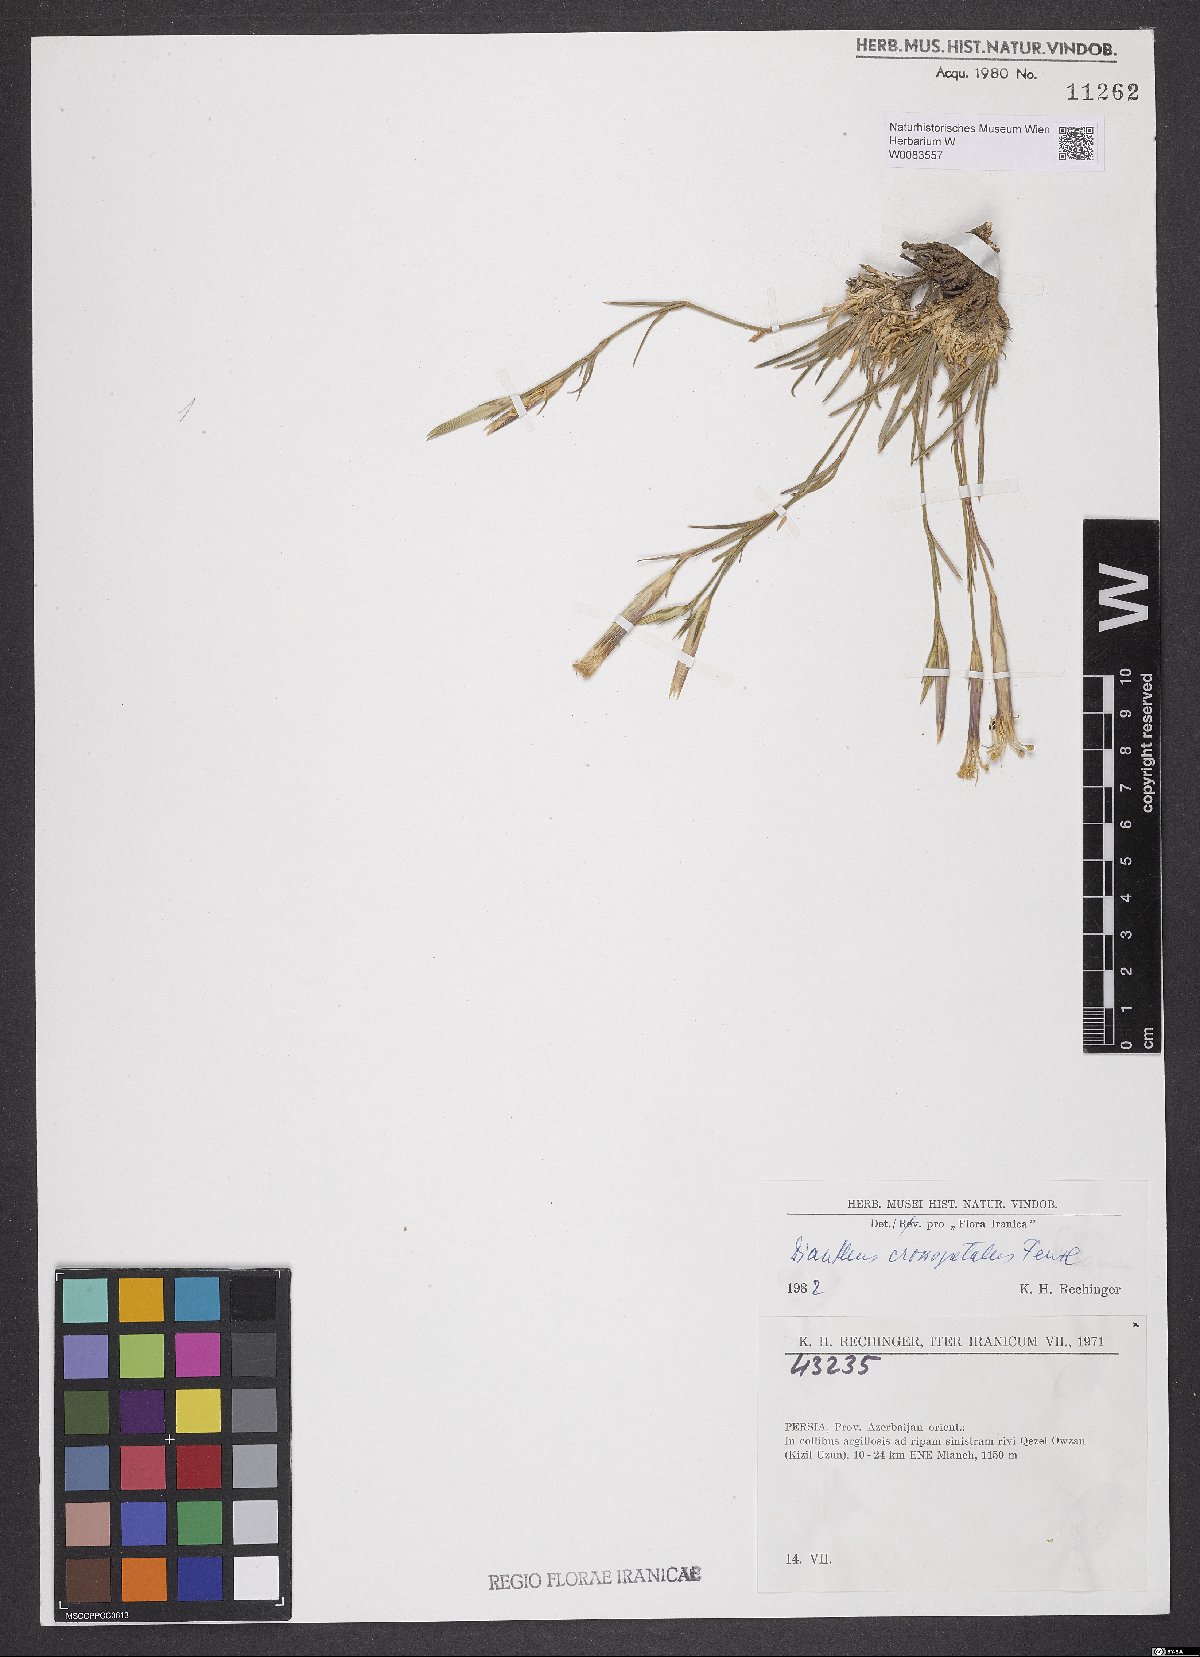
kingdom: Plantae
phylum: Tracheophyta
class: Magnoliopsida
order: Caryophyllales
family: Caryophyllaceae
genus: Dianthus
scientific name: Dianthus crossopetalus
